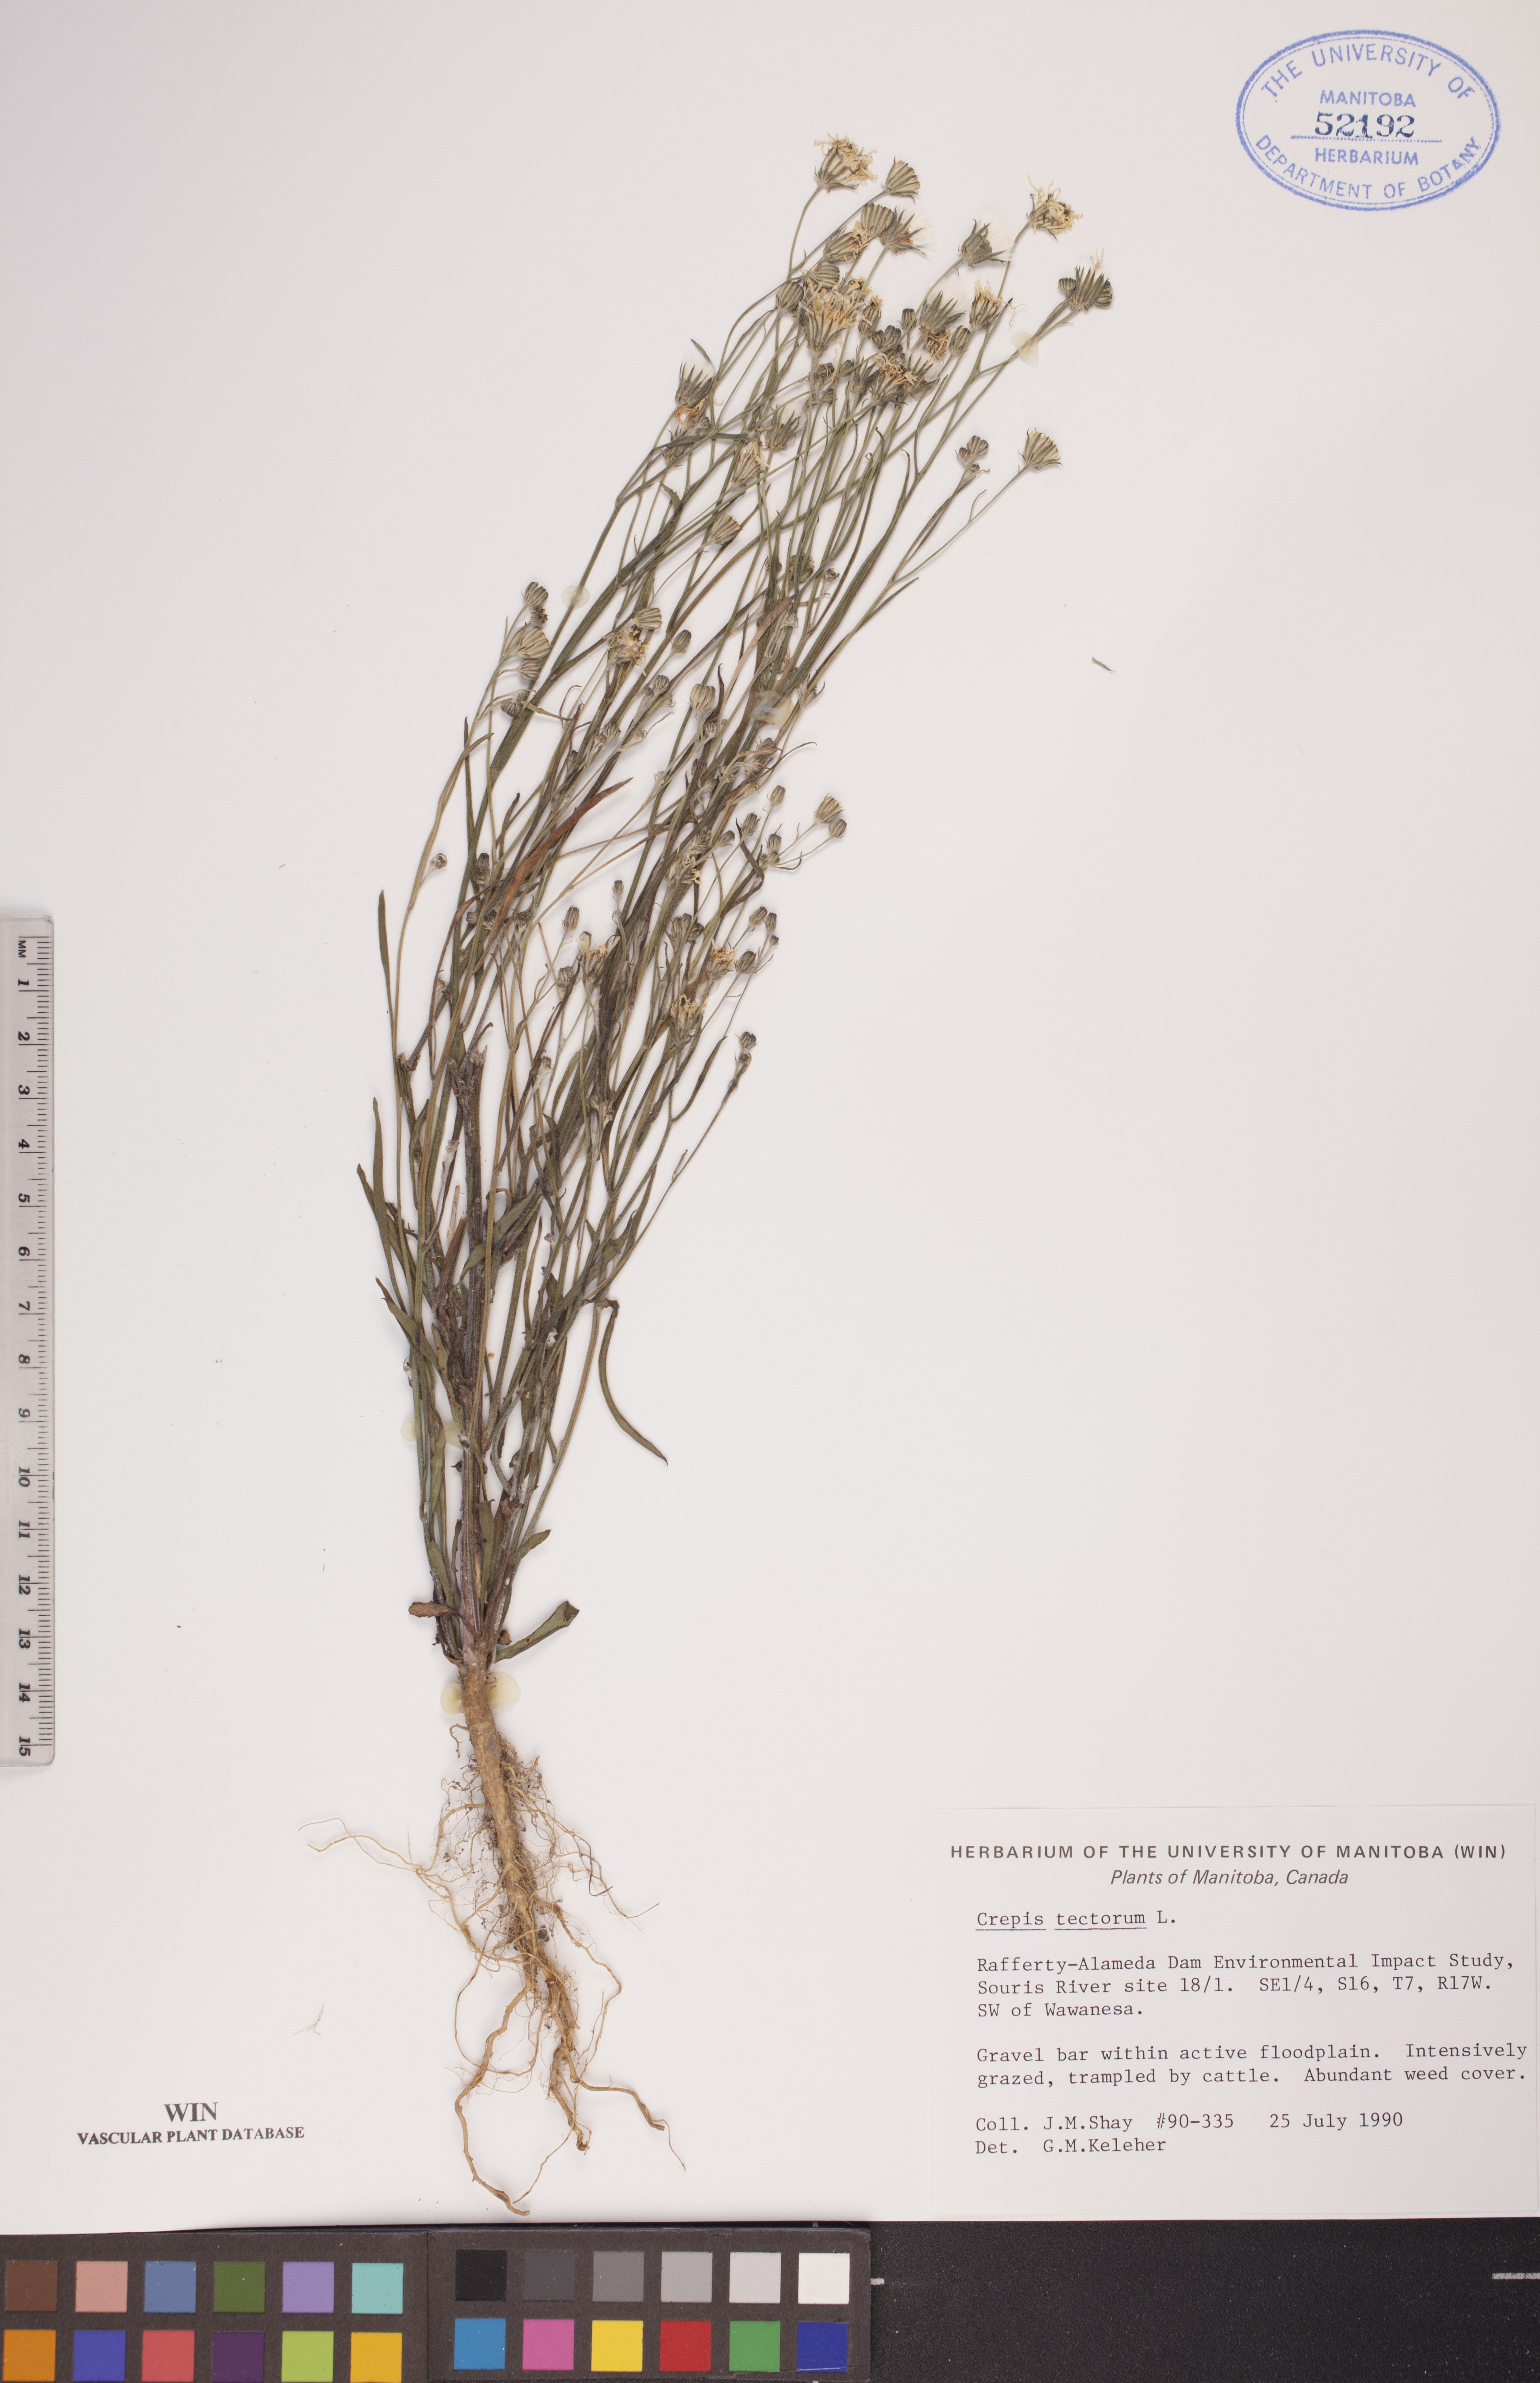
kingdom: Plantae
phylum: Tracheophyta
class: Magnoliopsida
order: Asterales
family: Asteraceae
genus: Crepis
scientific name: Crepis tectorum
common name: Narrow-leaved hawk's-beard
